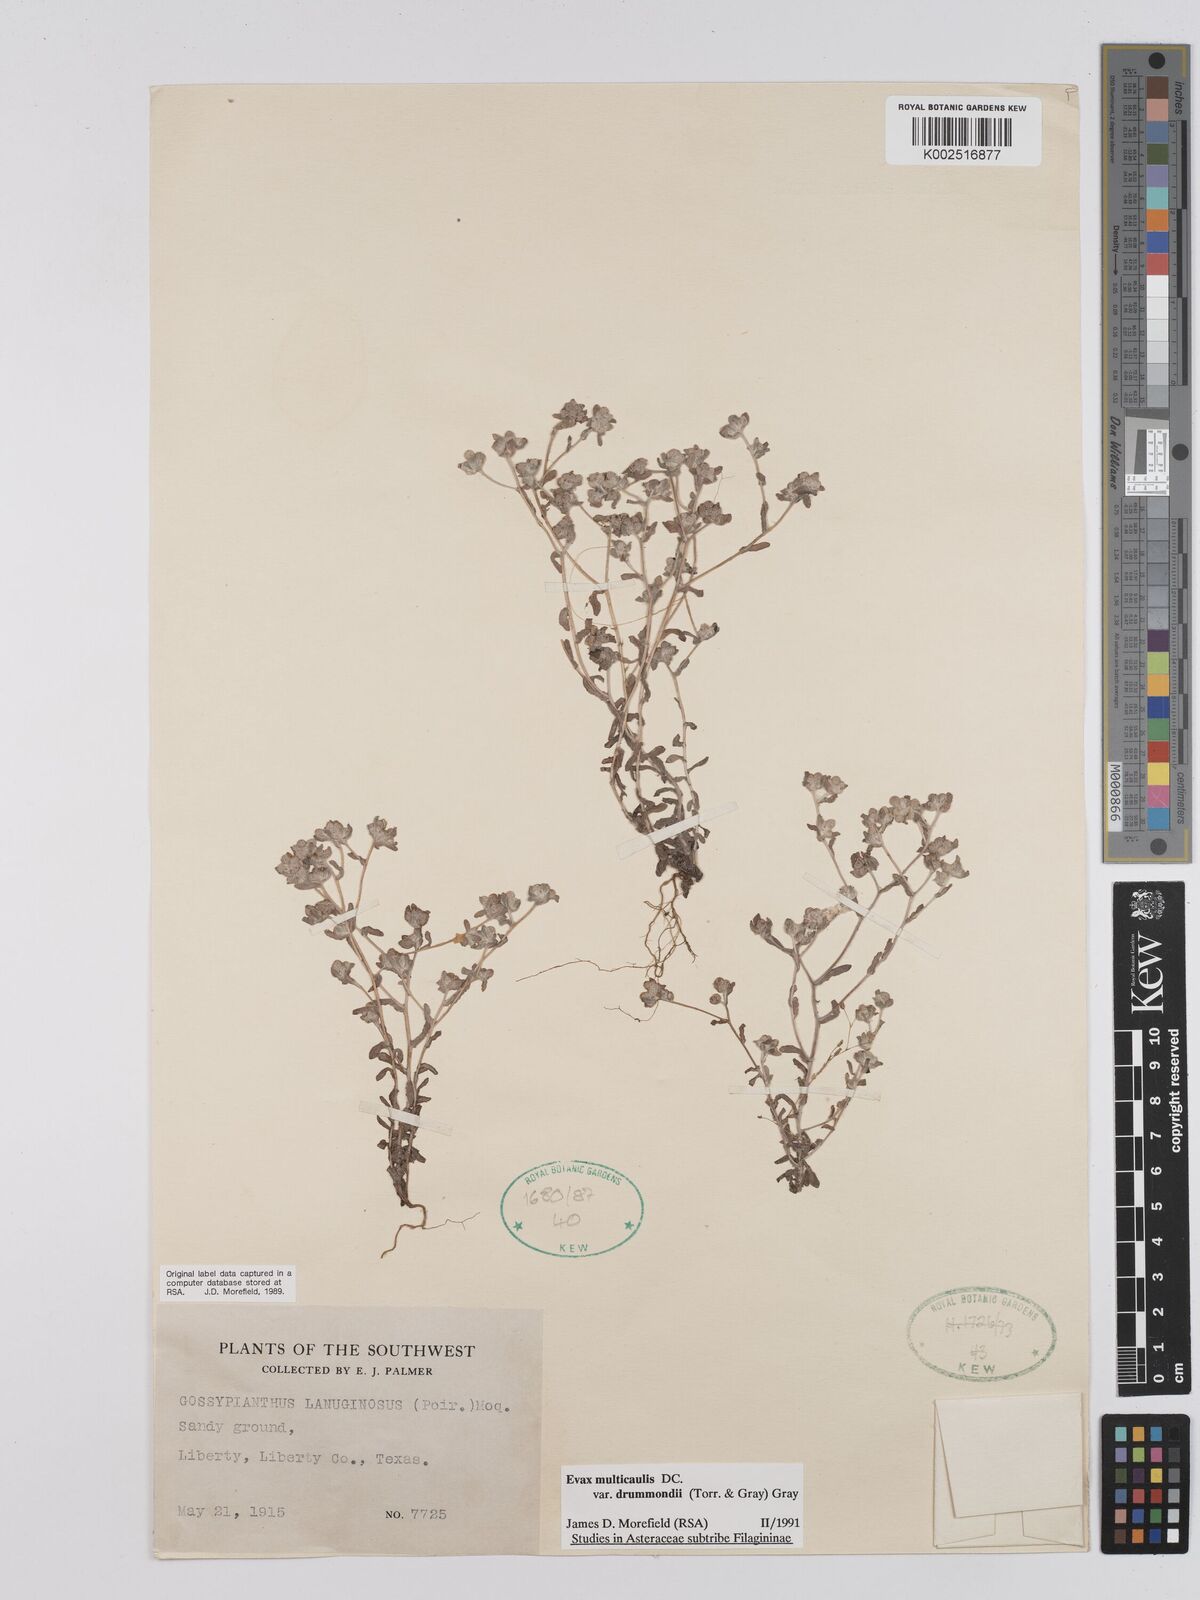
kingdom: Plantae
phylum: Tracheophyta
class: Magnoliopsida
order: Asterales
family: Asteraceae
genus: Filago
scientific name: Filago
